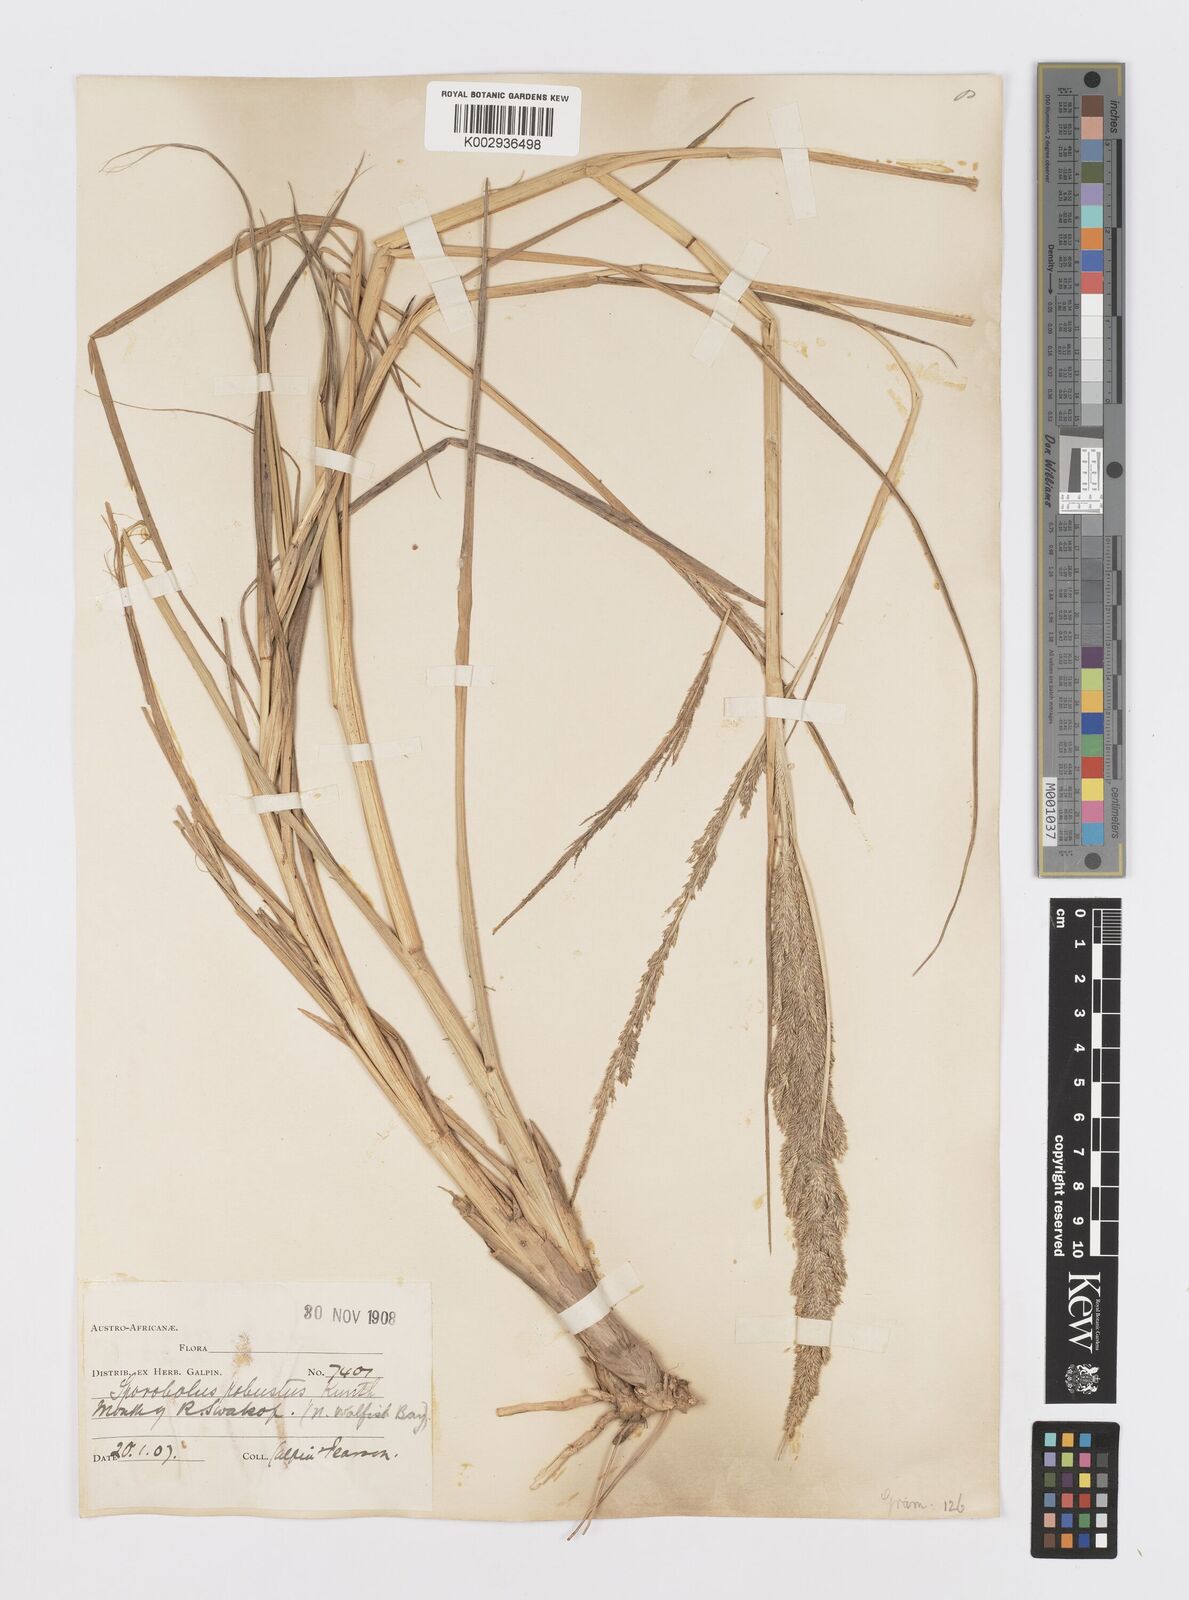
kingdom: Plantae
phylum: Tracheophyta
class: Liliopsida
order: Poales
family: Poaceae
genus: Sporobolus
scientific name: Sporobolus consimilis
